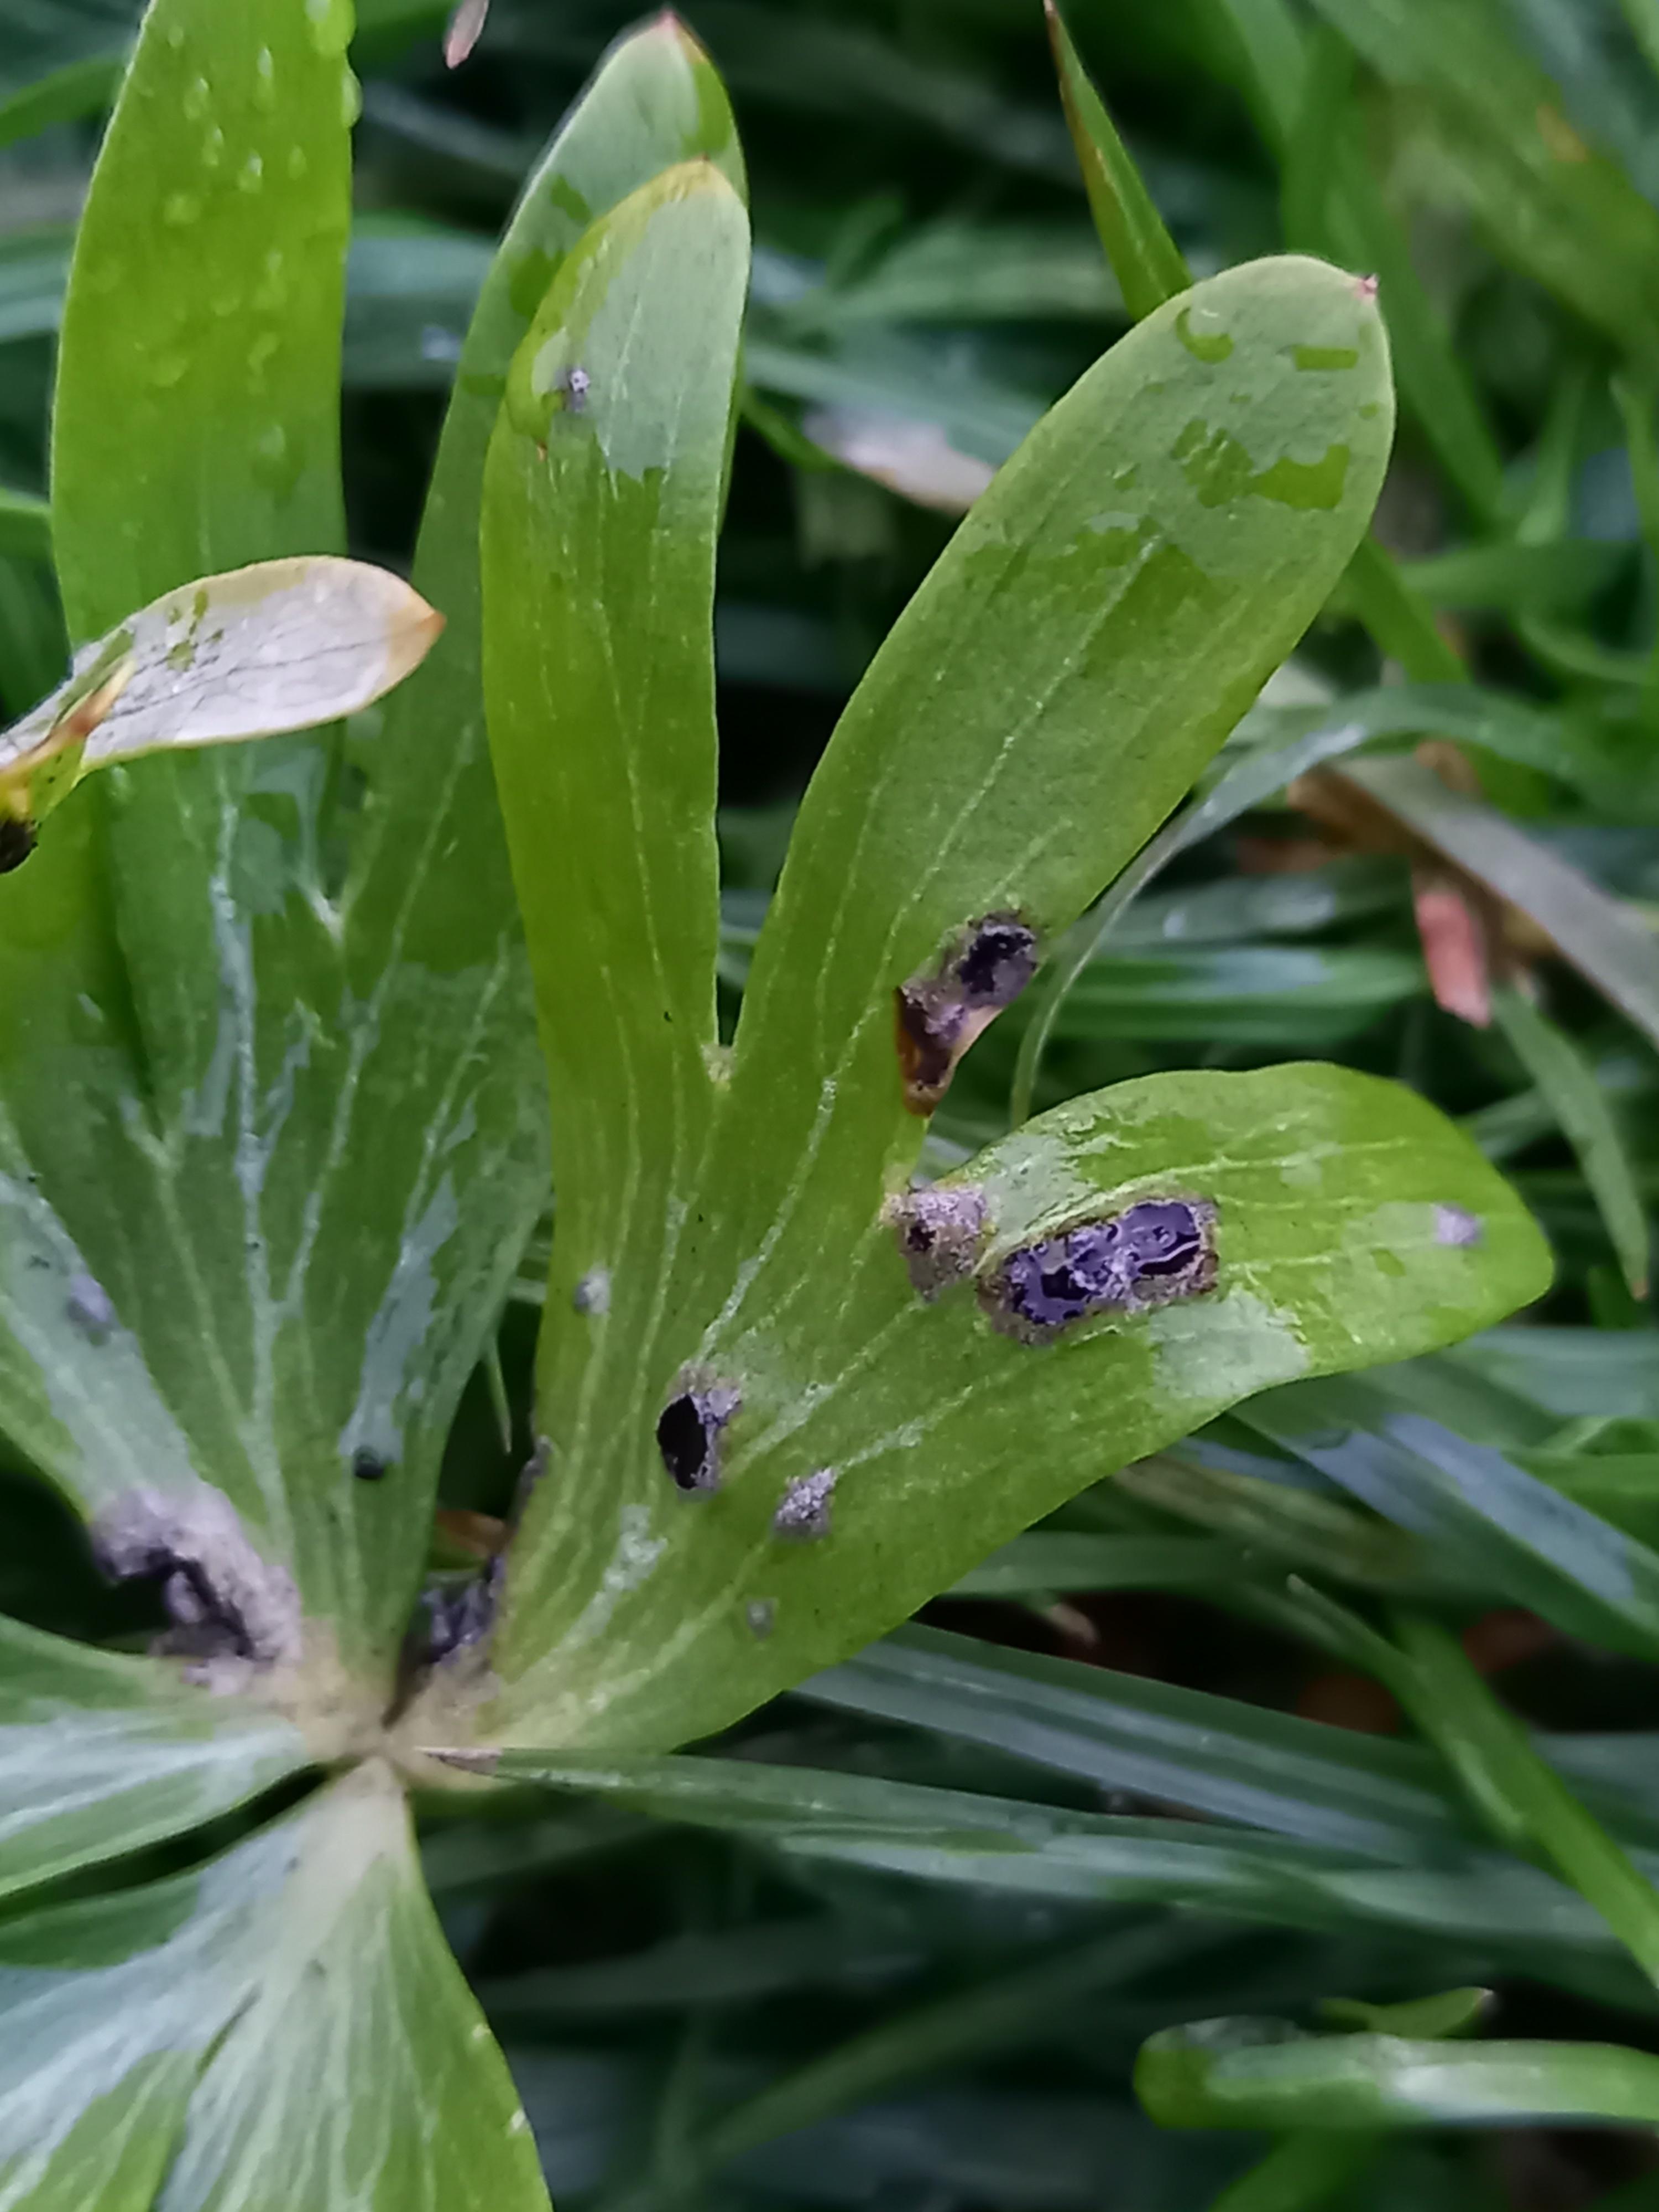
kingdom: Fungi
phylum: Basidiomycota
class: Ustilaginomycetes
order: Urocystidales
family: Urocystidaceae
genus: Urocystis
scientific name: Urocystis eranthidis
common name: erantis-brand
